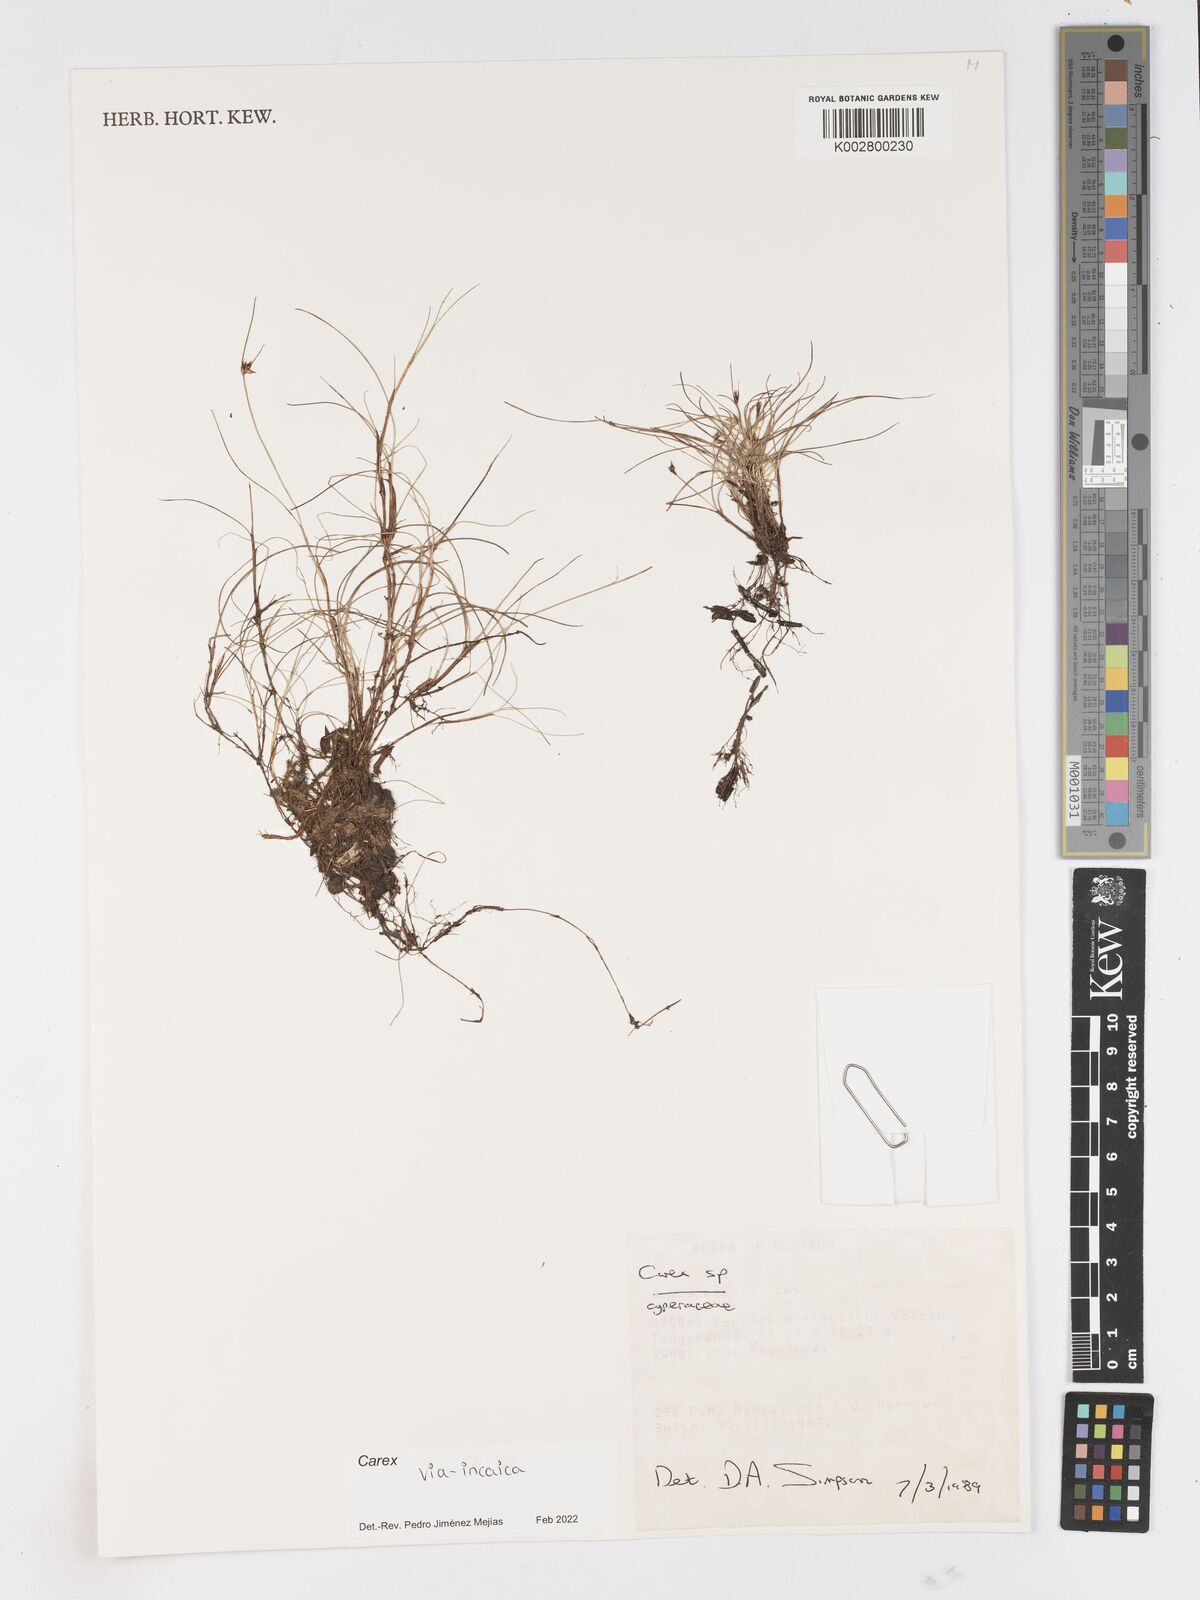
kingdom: Plantae
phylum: Tracheophyta
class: Liliopsida
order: Poales
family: Cyperaceae
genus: Carex
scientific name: Carex via-incaica
